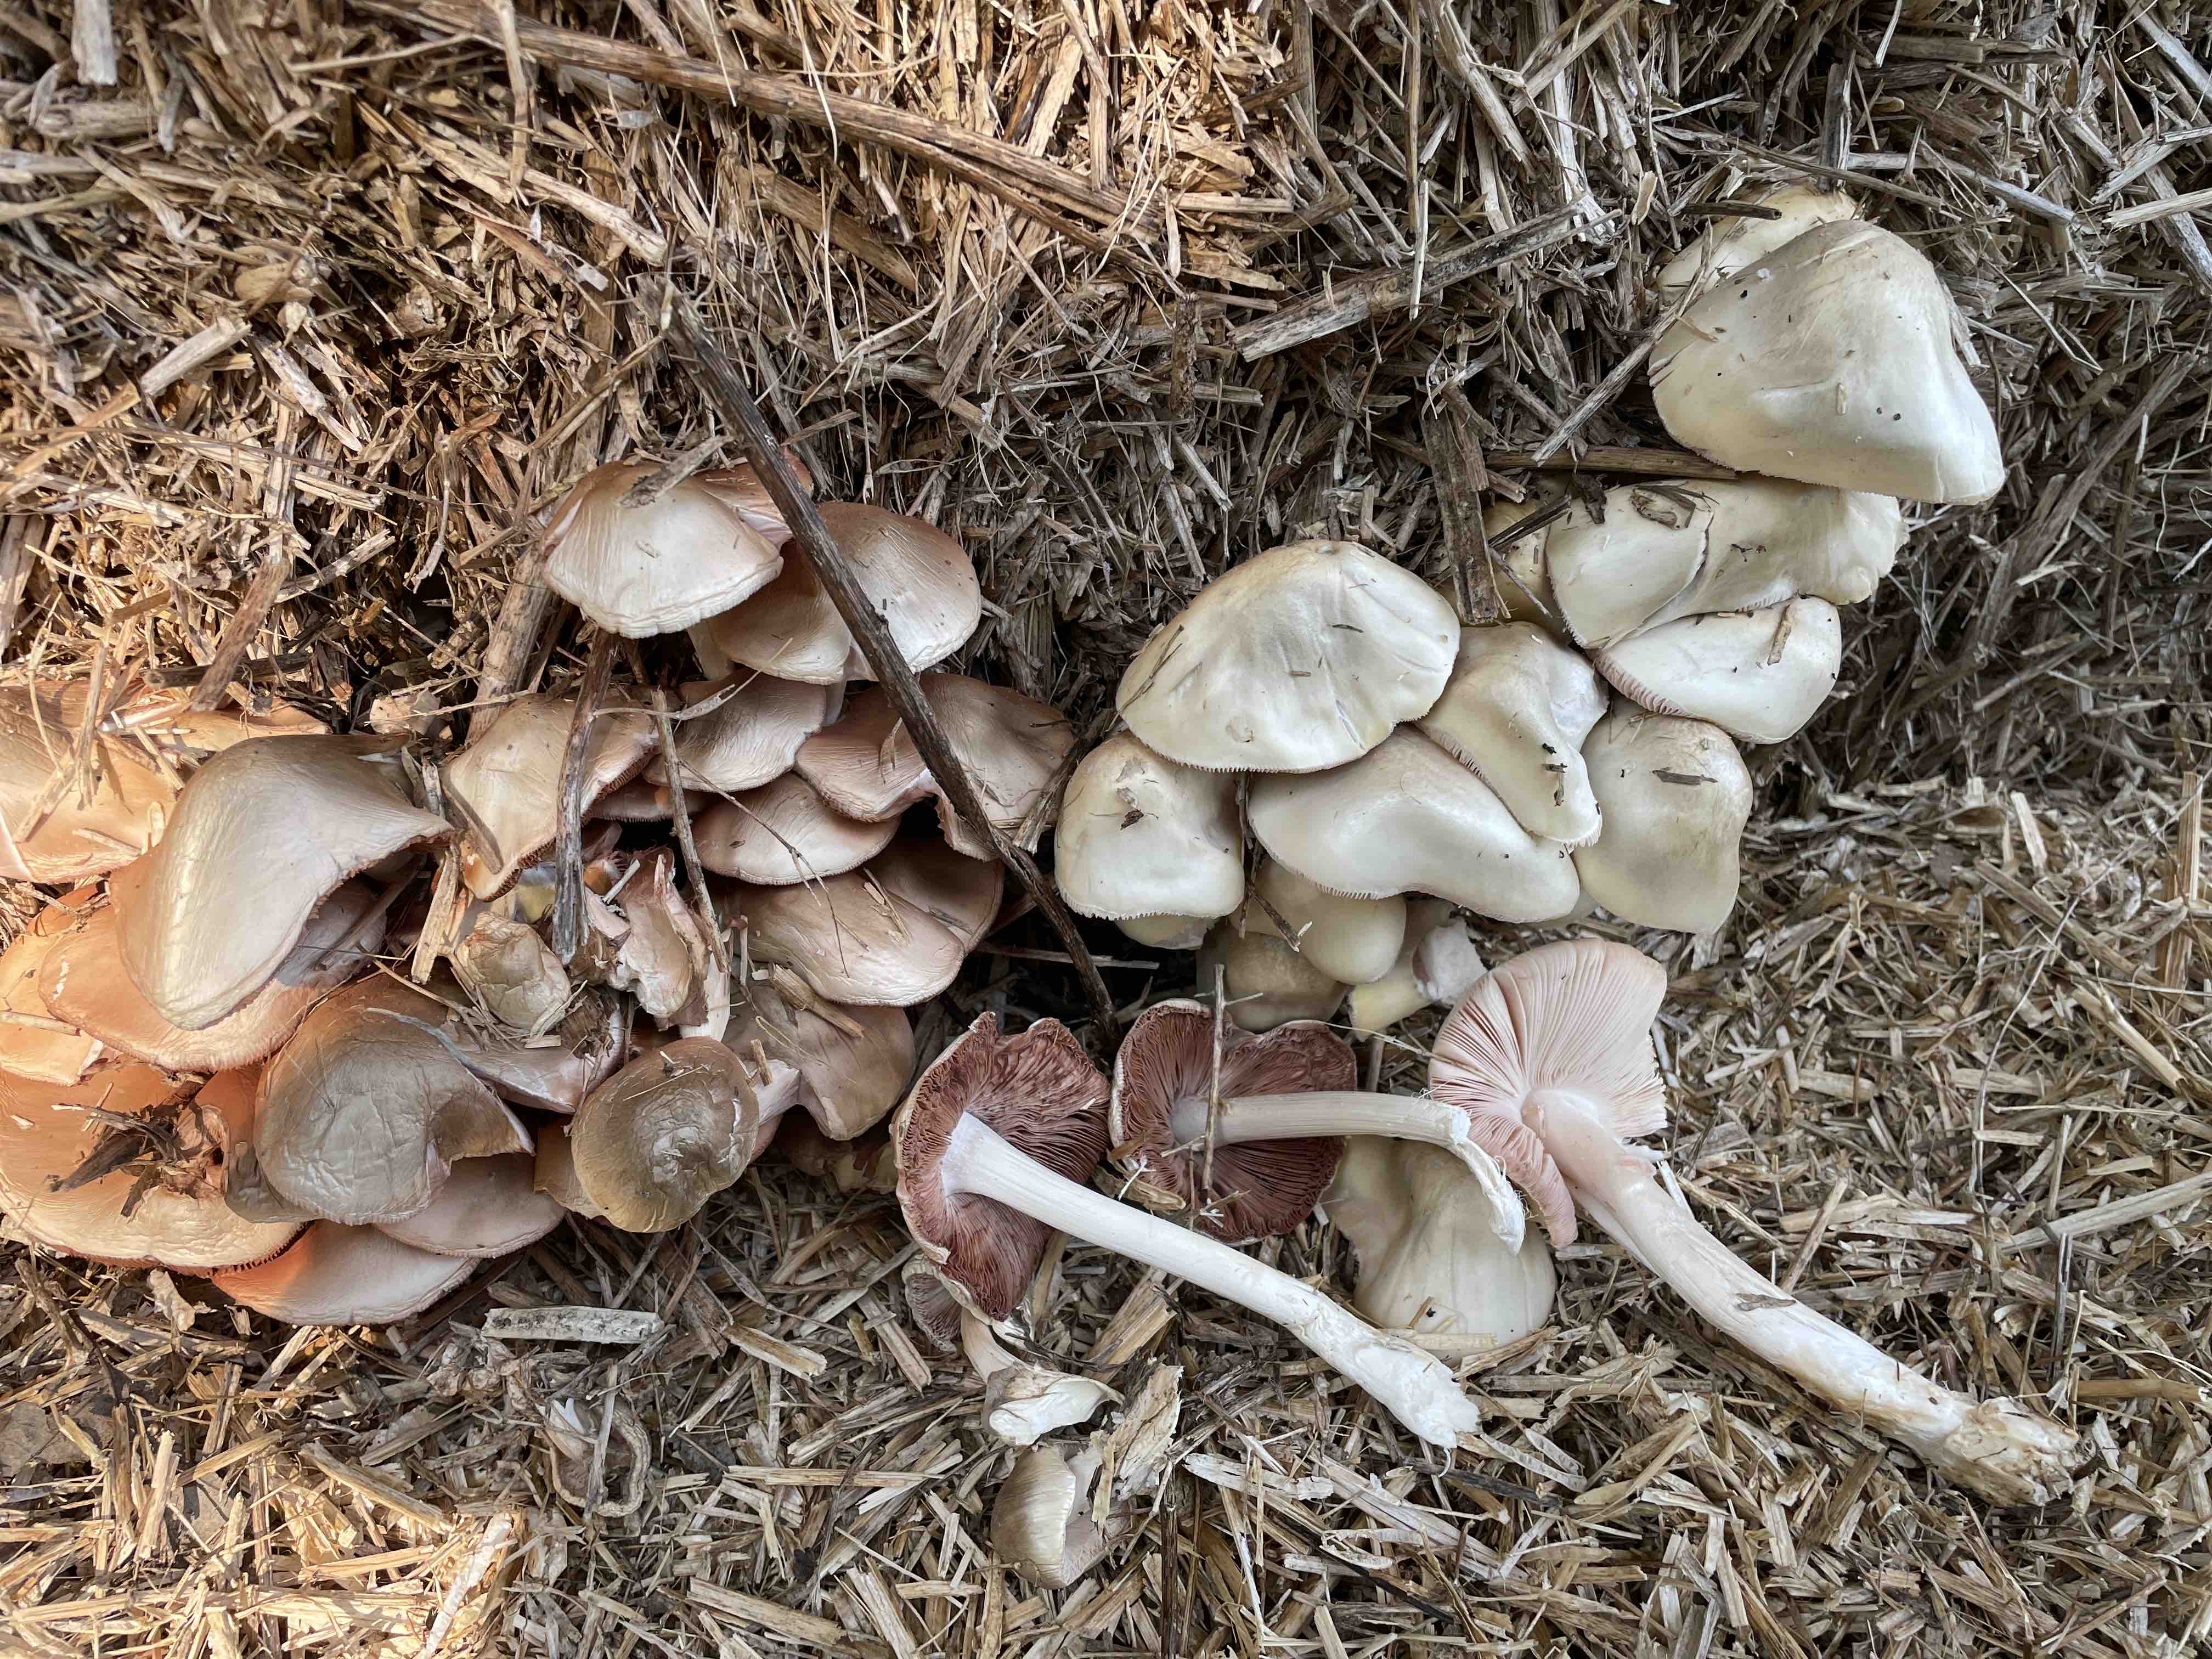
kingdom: Fungi
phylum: Basidiomycota
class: Agaricomycetes
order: Agaricales
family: Pluteaceae
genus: Volvopluteus
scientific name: Volvopluteus gloiocephalus
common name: høj posesvamp
